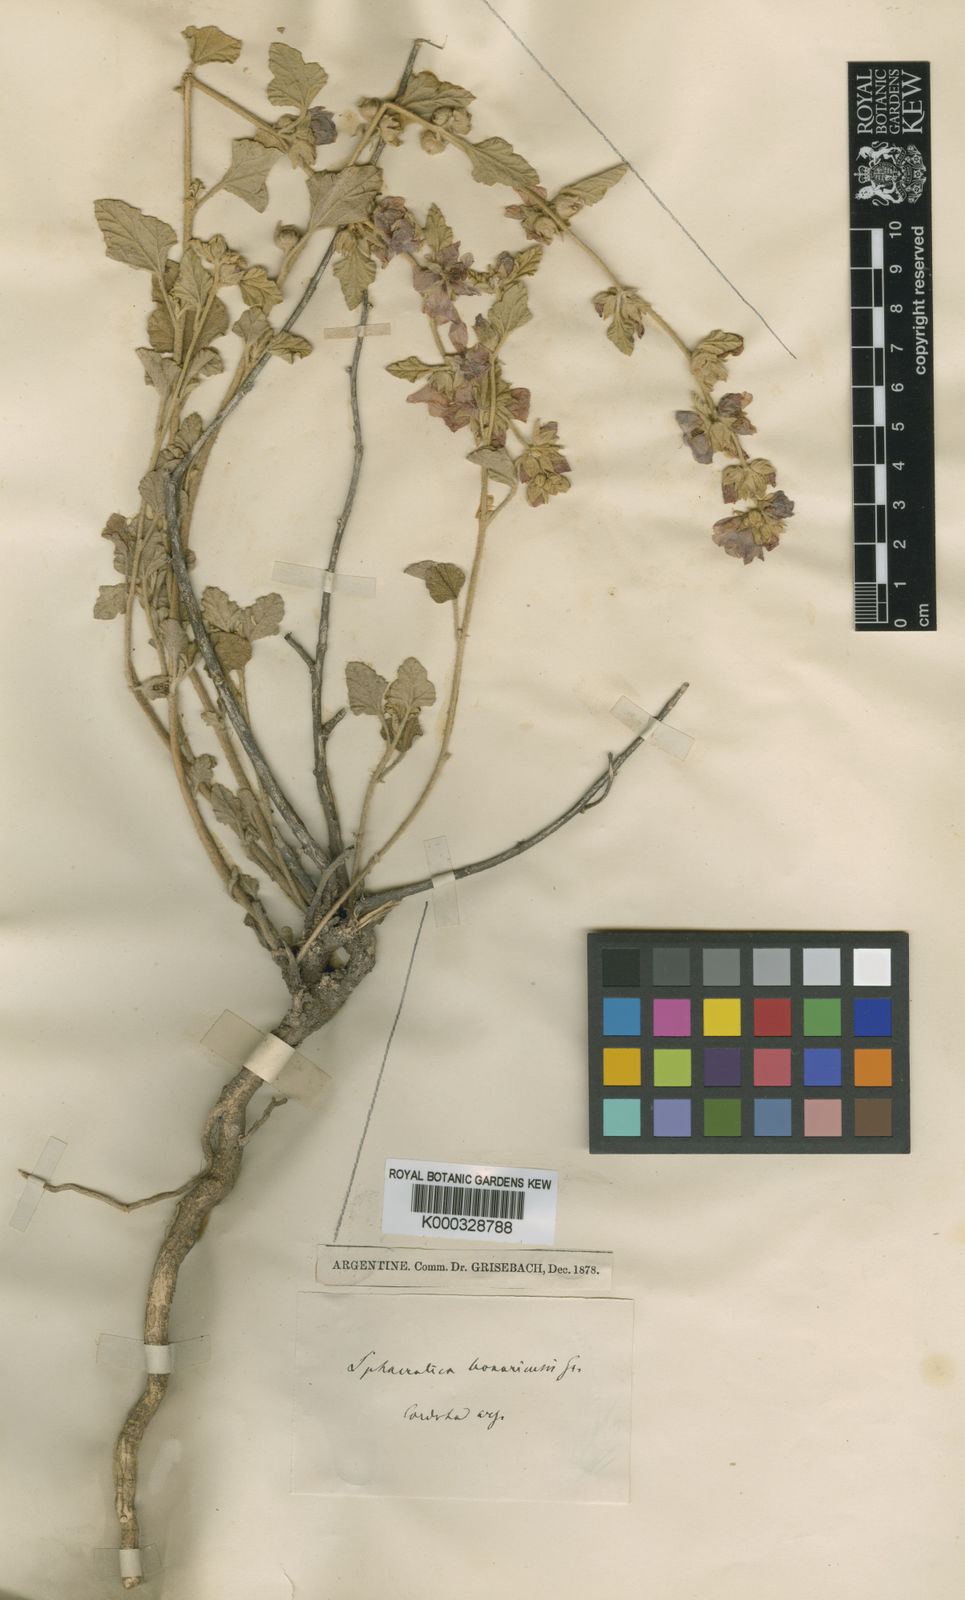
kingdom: Plantae
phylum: Tracheophyta
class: Magnoliopsida
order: Malvales
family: Malvaceae
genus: Sphaeralcea
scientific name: Sphaeralcea bonariensis
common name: Latin globemallow
